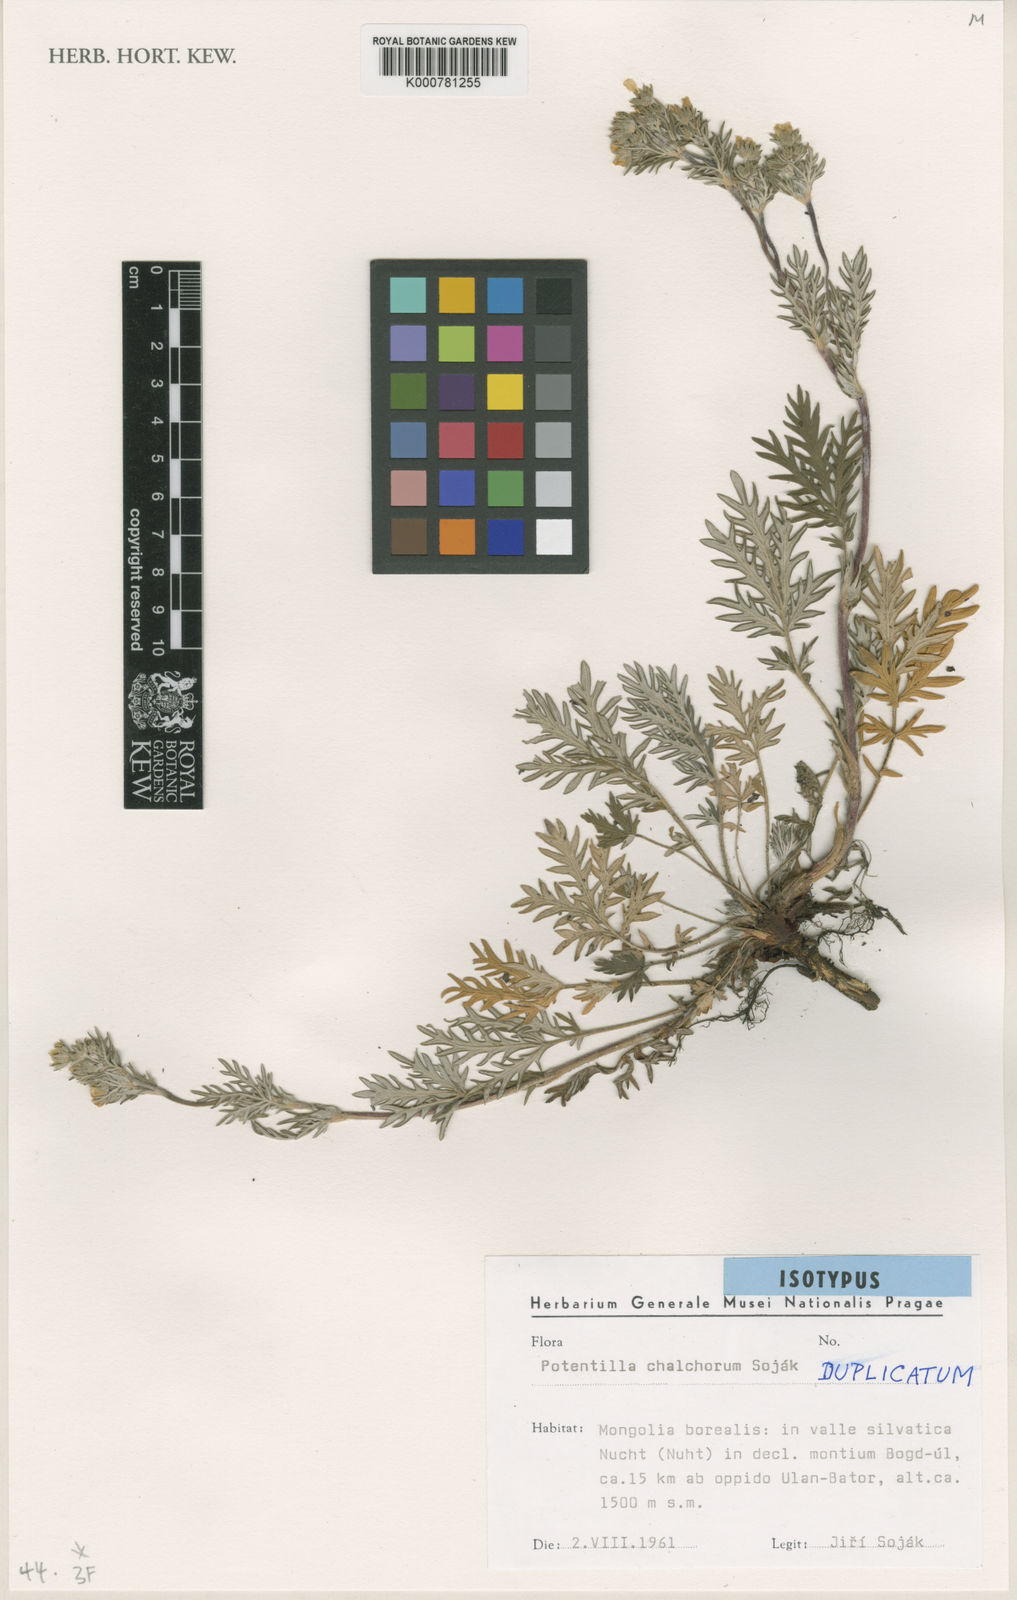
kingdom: Plantae
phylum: Tracheophyta
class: Magnoliopsida
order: Rosales
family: Rosaceae
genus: Potentilla
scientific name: Potentilla
